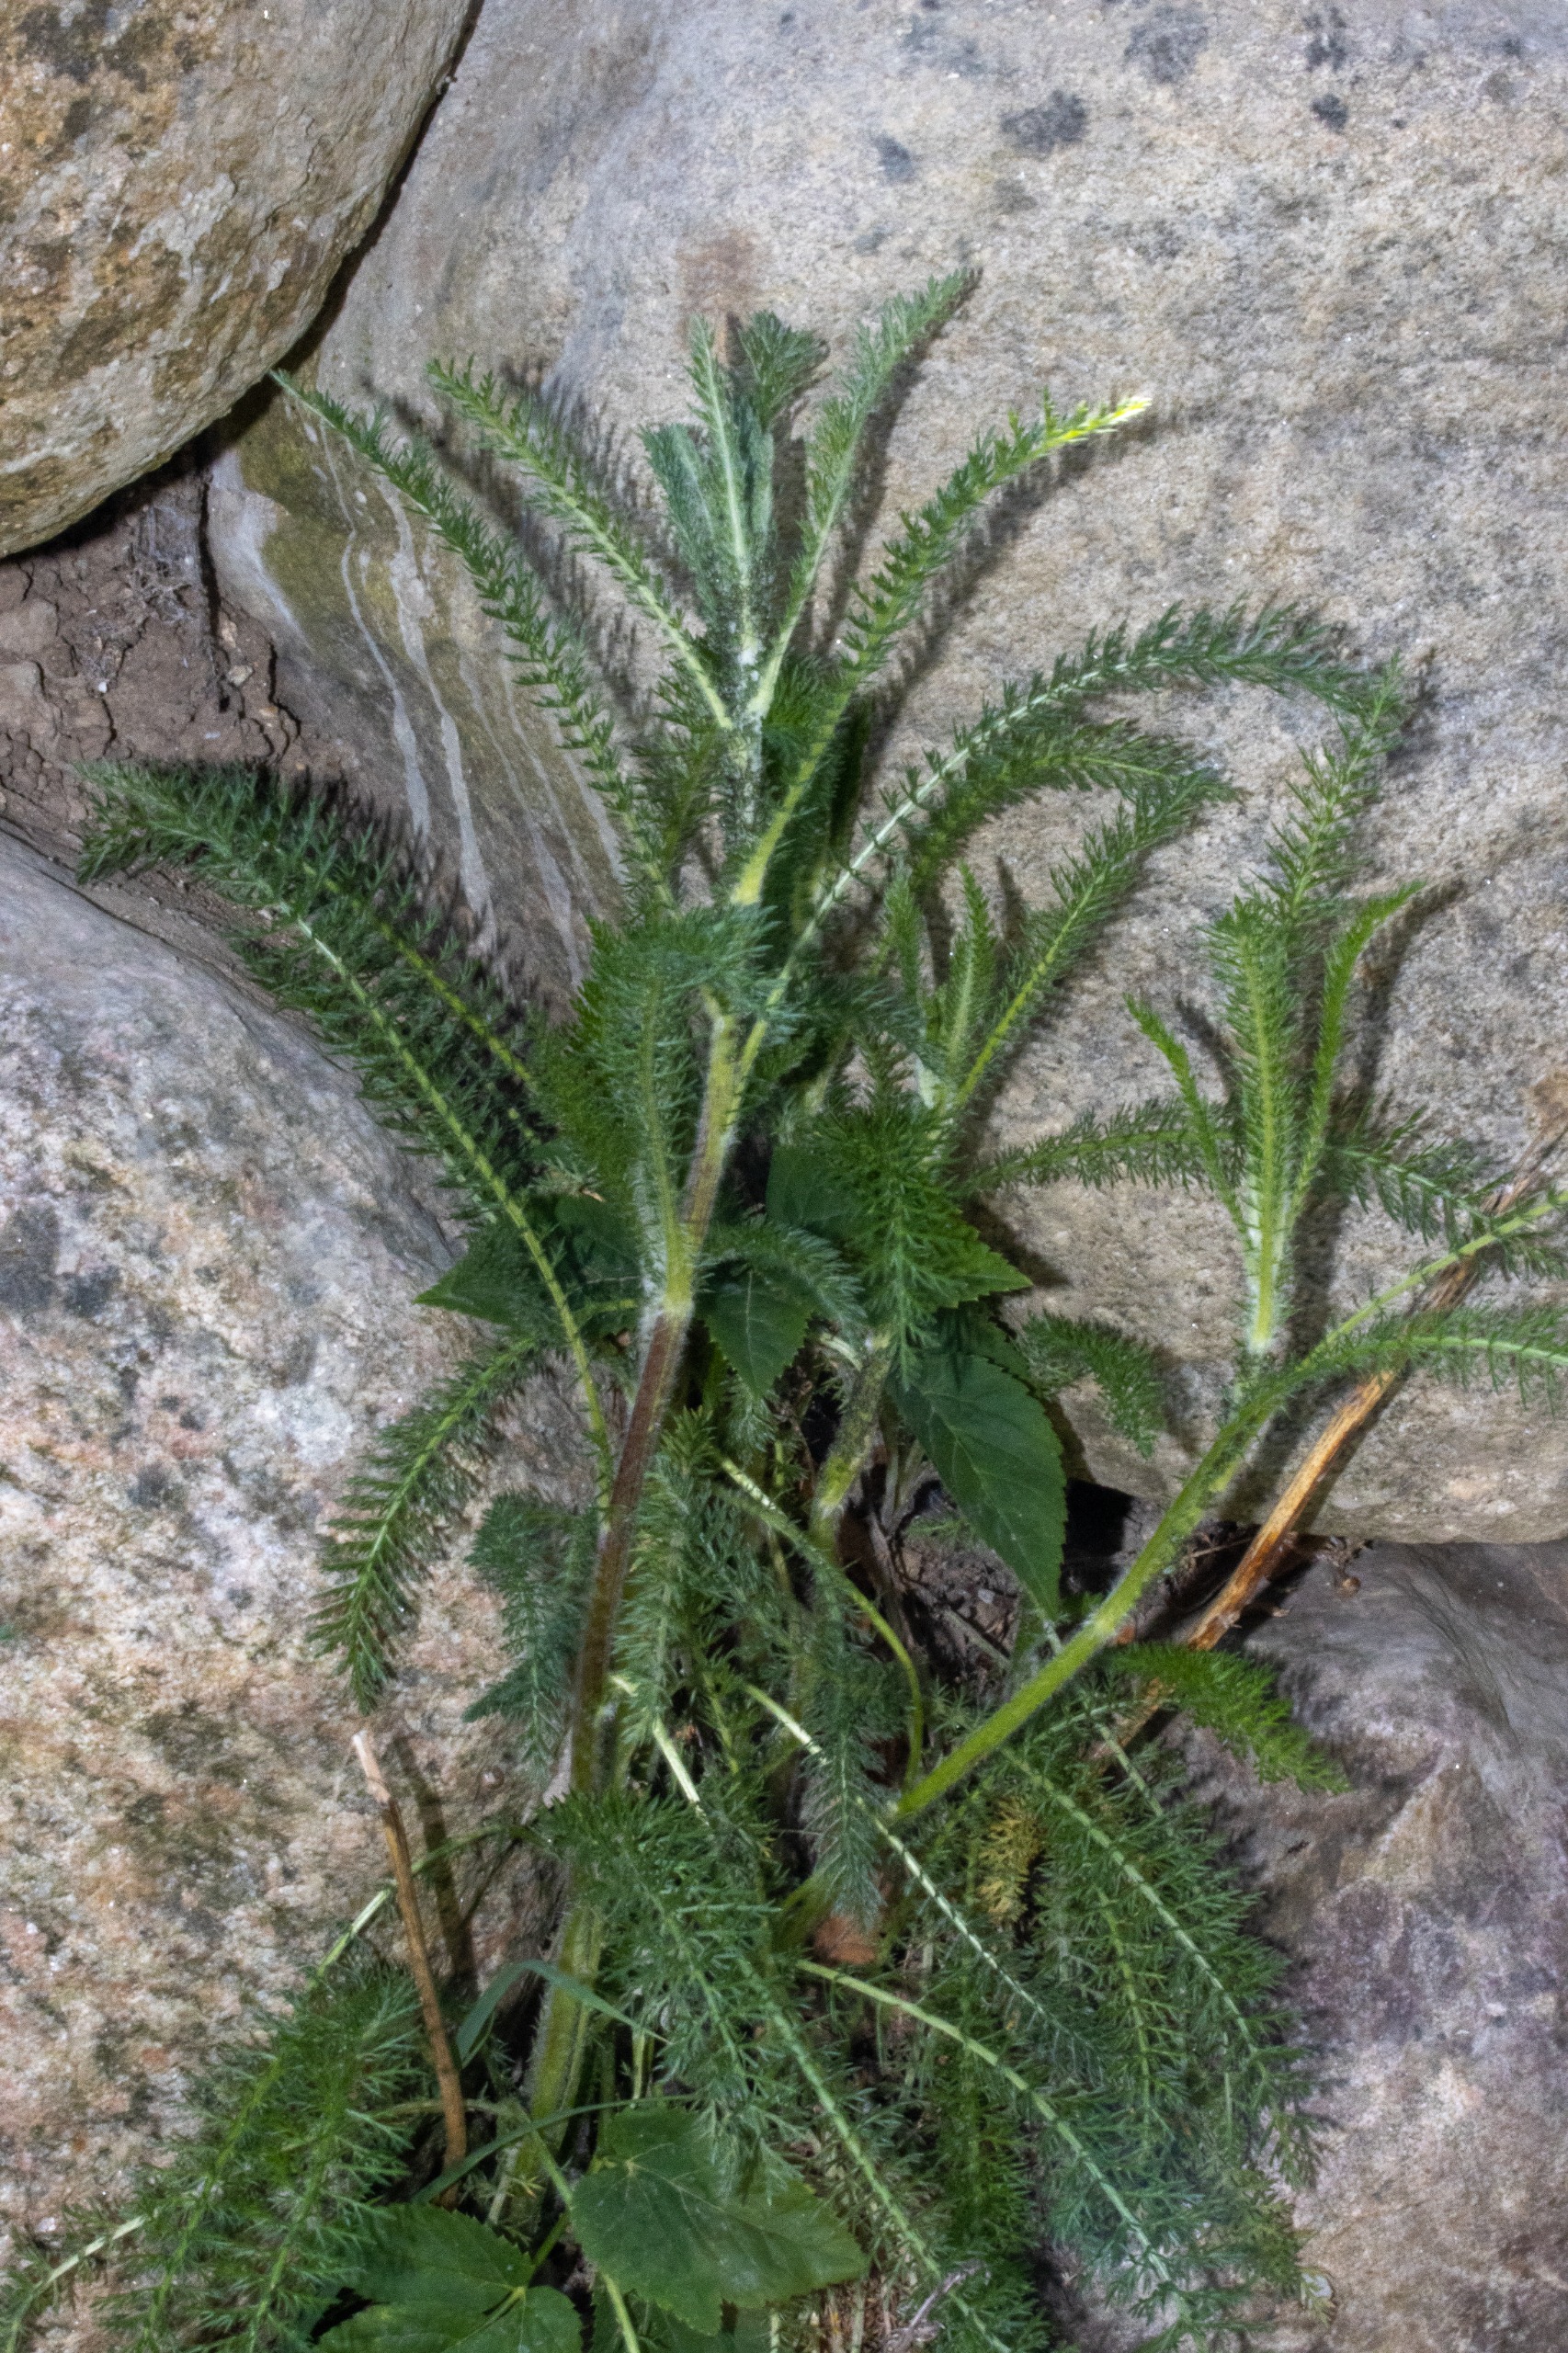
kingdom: Plantae
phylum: Tracheophyta
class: Magnoliopsida
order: Asterales
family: Asteraceae
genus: Achillea
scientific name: Achillea millefolium
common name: Almindelig røllike
